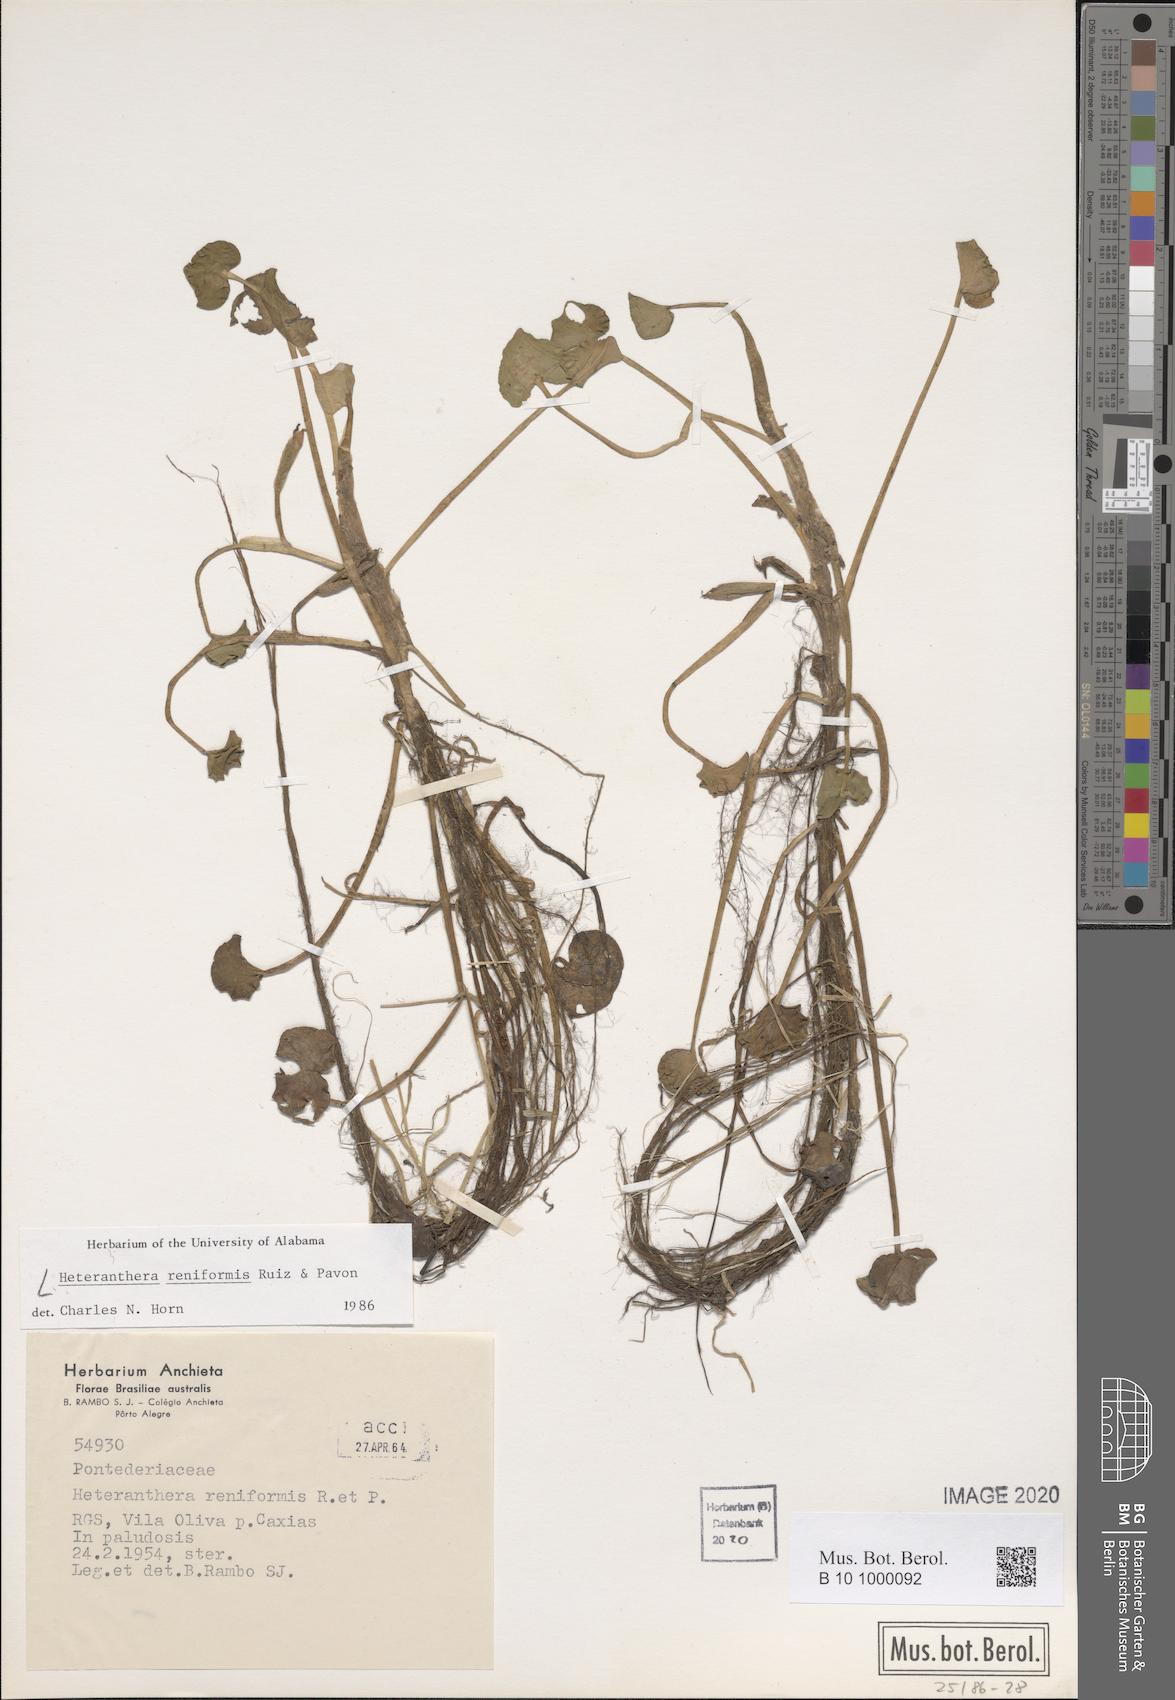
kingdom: Plantae
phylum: Tracheophyta
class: Liliopsida
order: Commelinales
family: Pontederiaceae
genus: Heteranthera
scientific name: Heteranthera reniformis
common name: Kidneyleaf mudplantain
